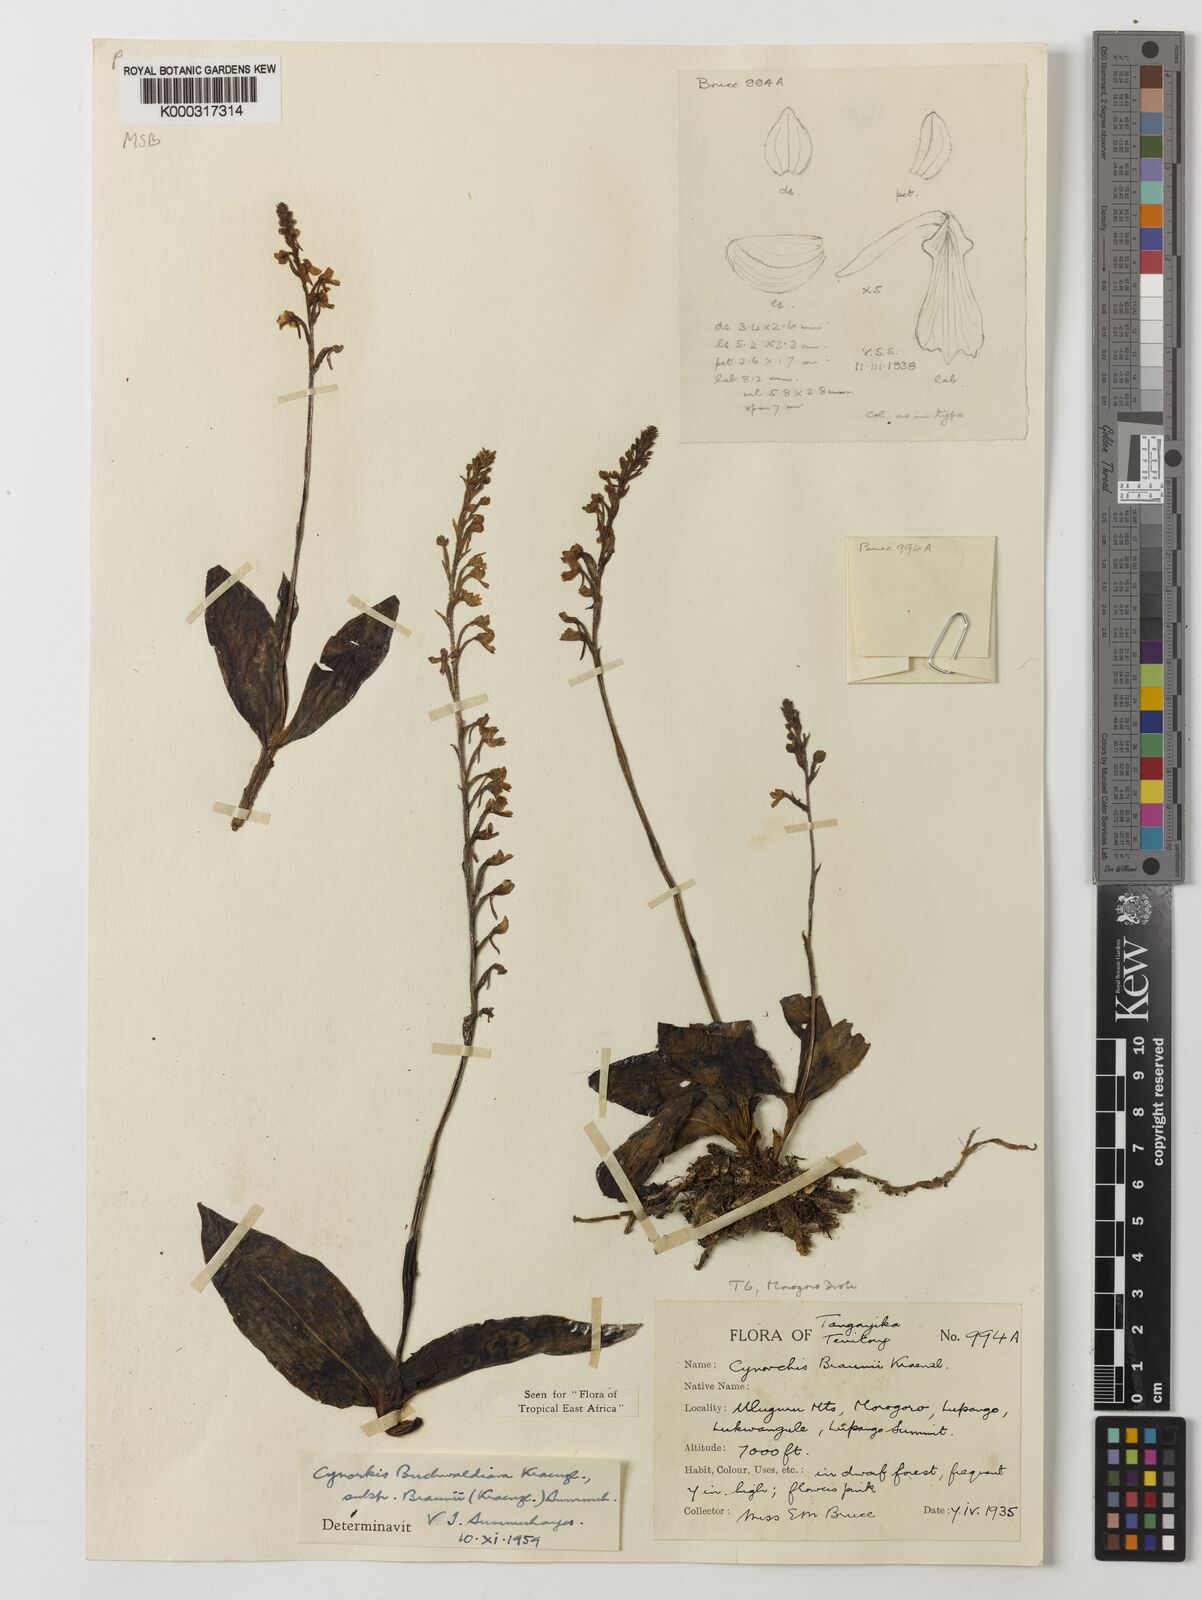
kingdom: Plantae
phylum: Tracheophyta
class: Liliopsida
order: Asparagales
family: Orchidaceae
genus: Cynorkis
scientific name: Cynorkis buchwaldiana
